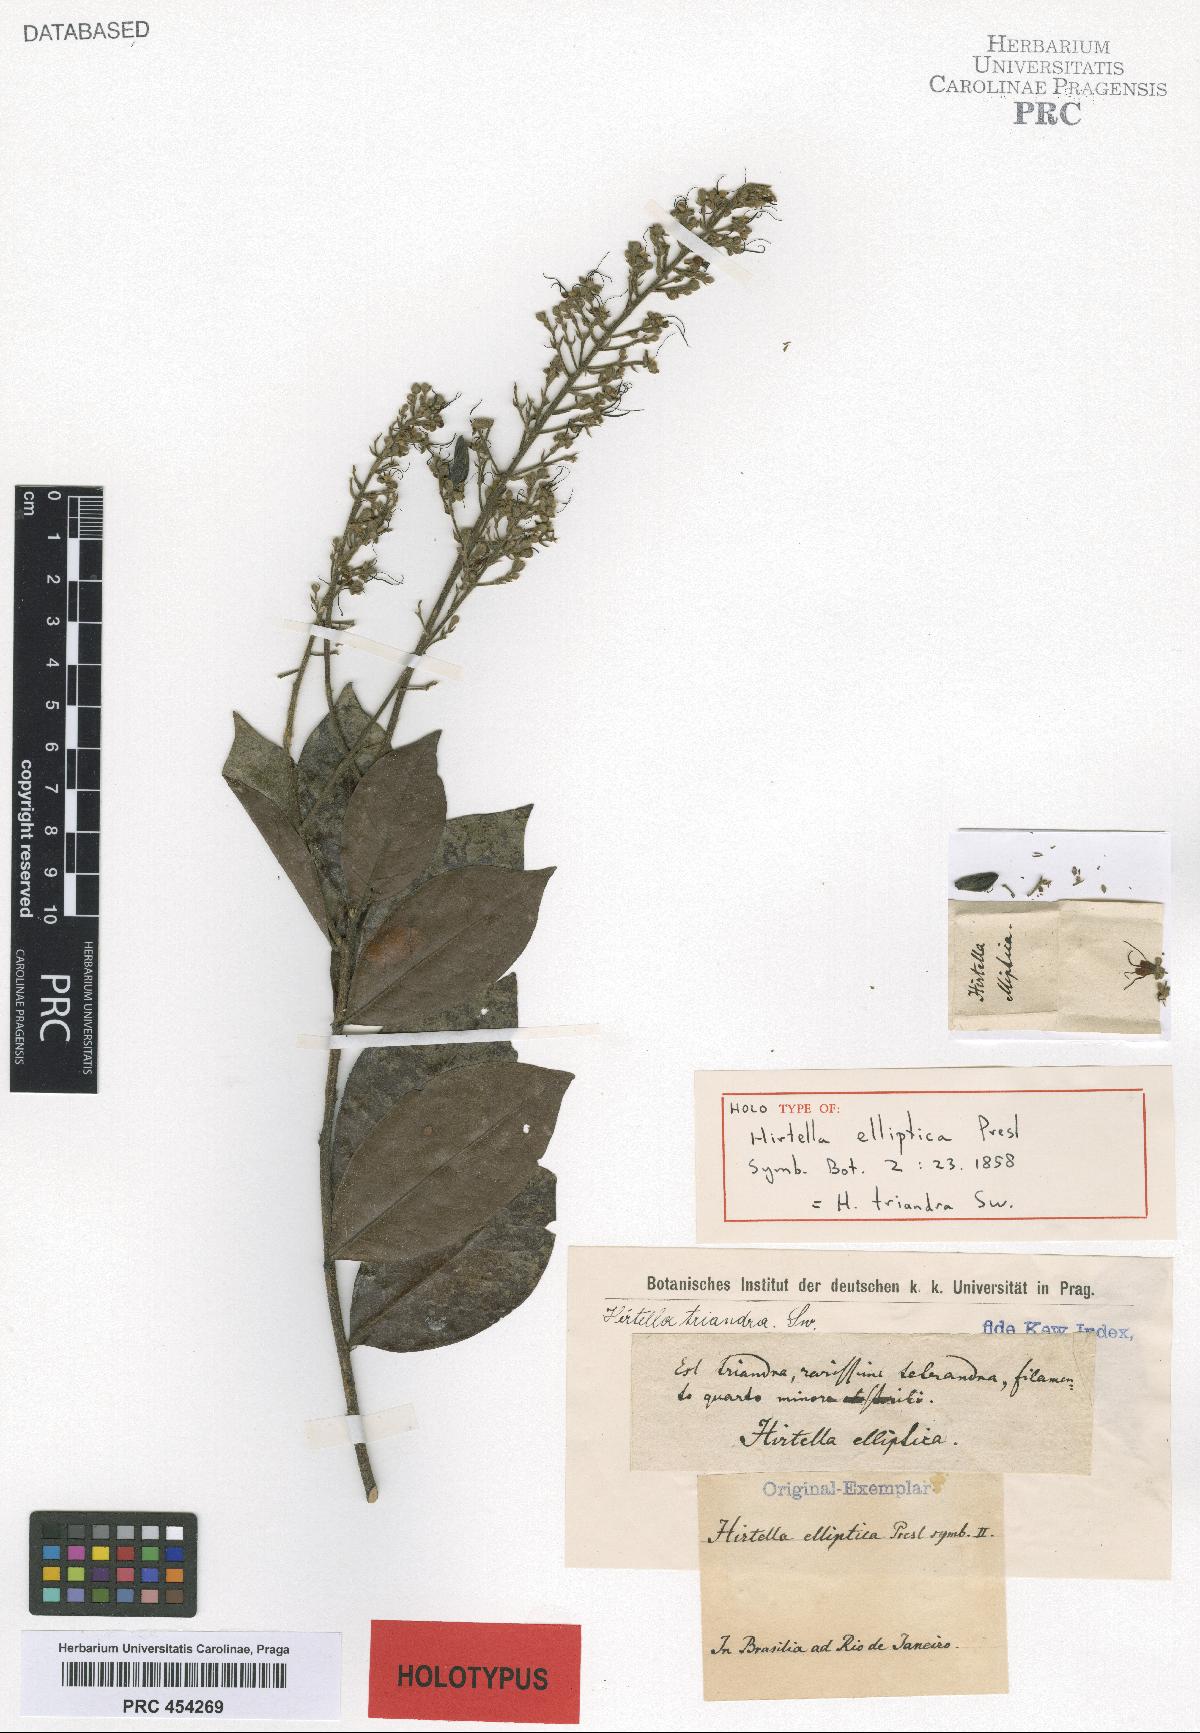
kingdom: Plantae
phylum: Tracheophyta
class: Magnoliopsida
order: Malpighiales
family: Chrysobalanaceae
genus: Hirtella
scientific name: Hirtella triandra
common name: Hairy plum
